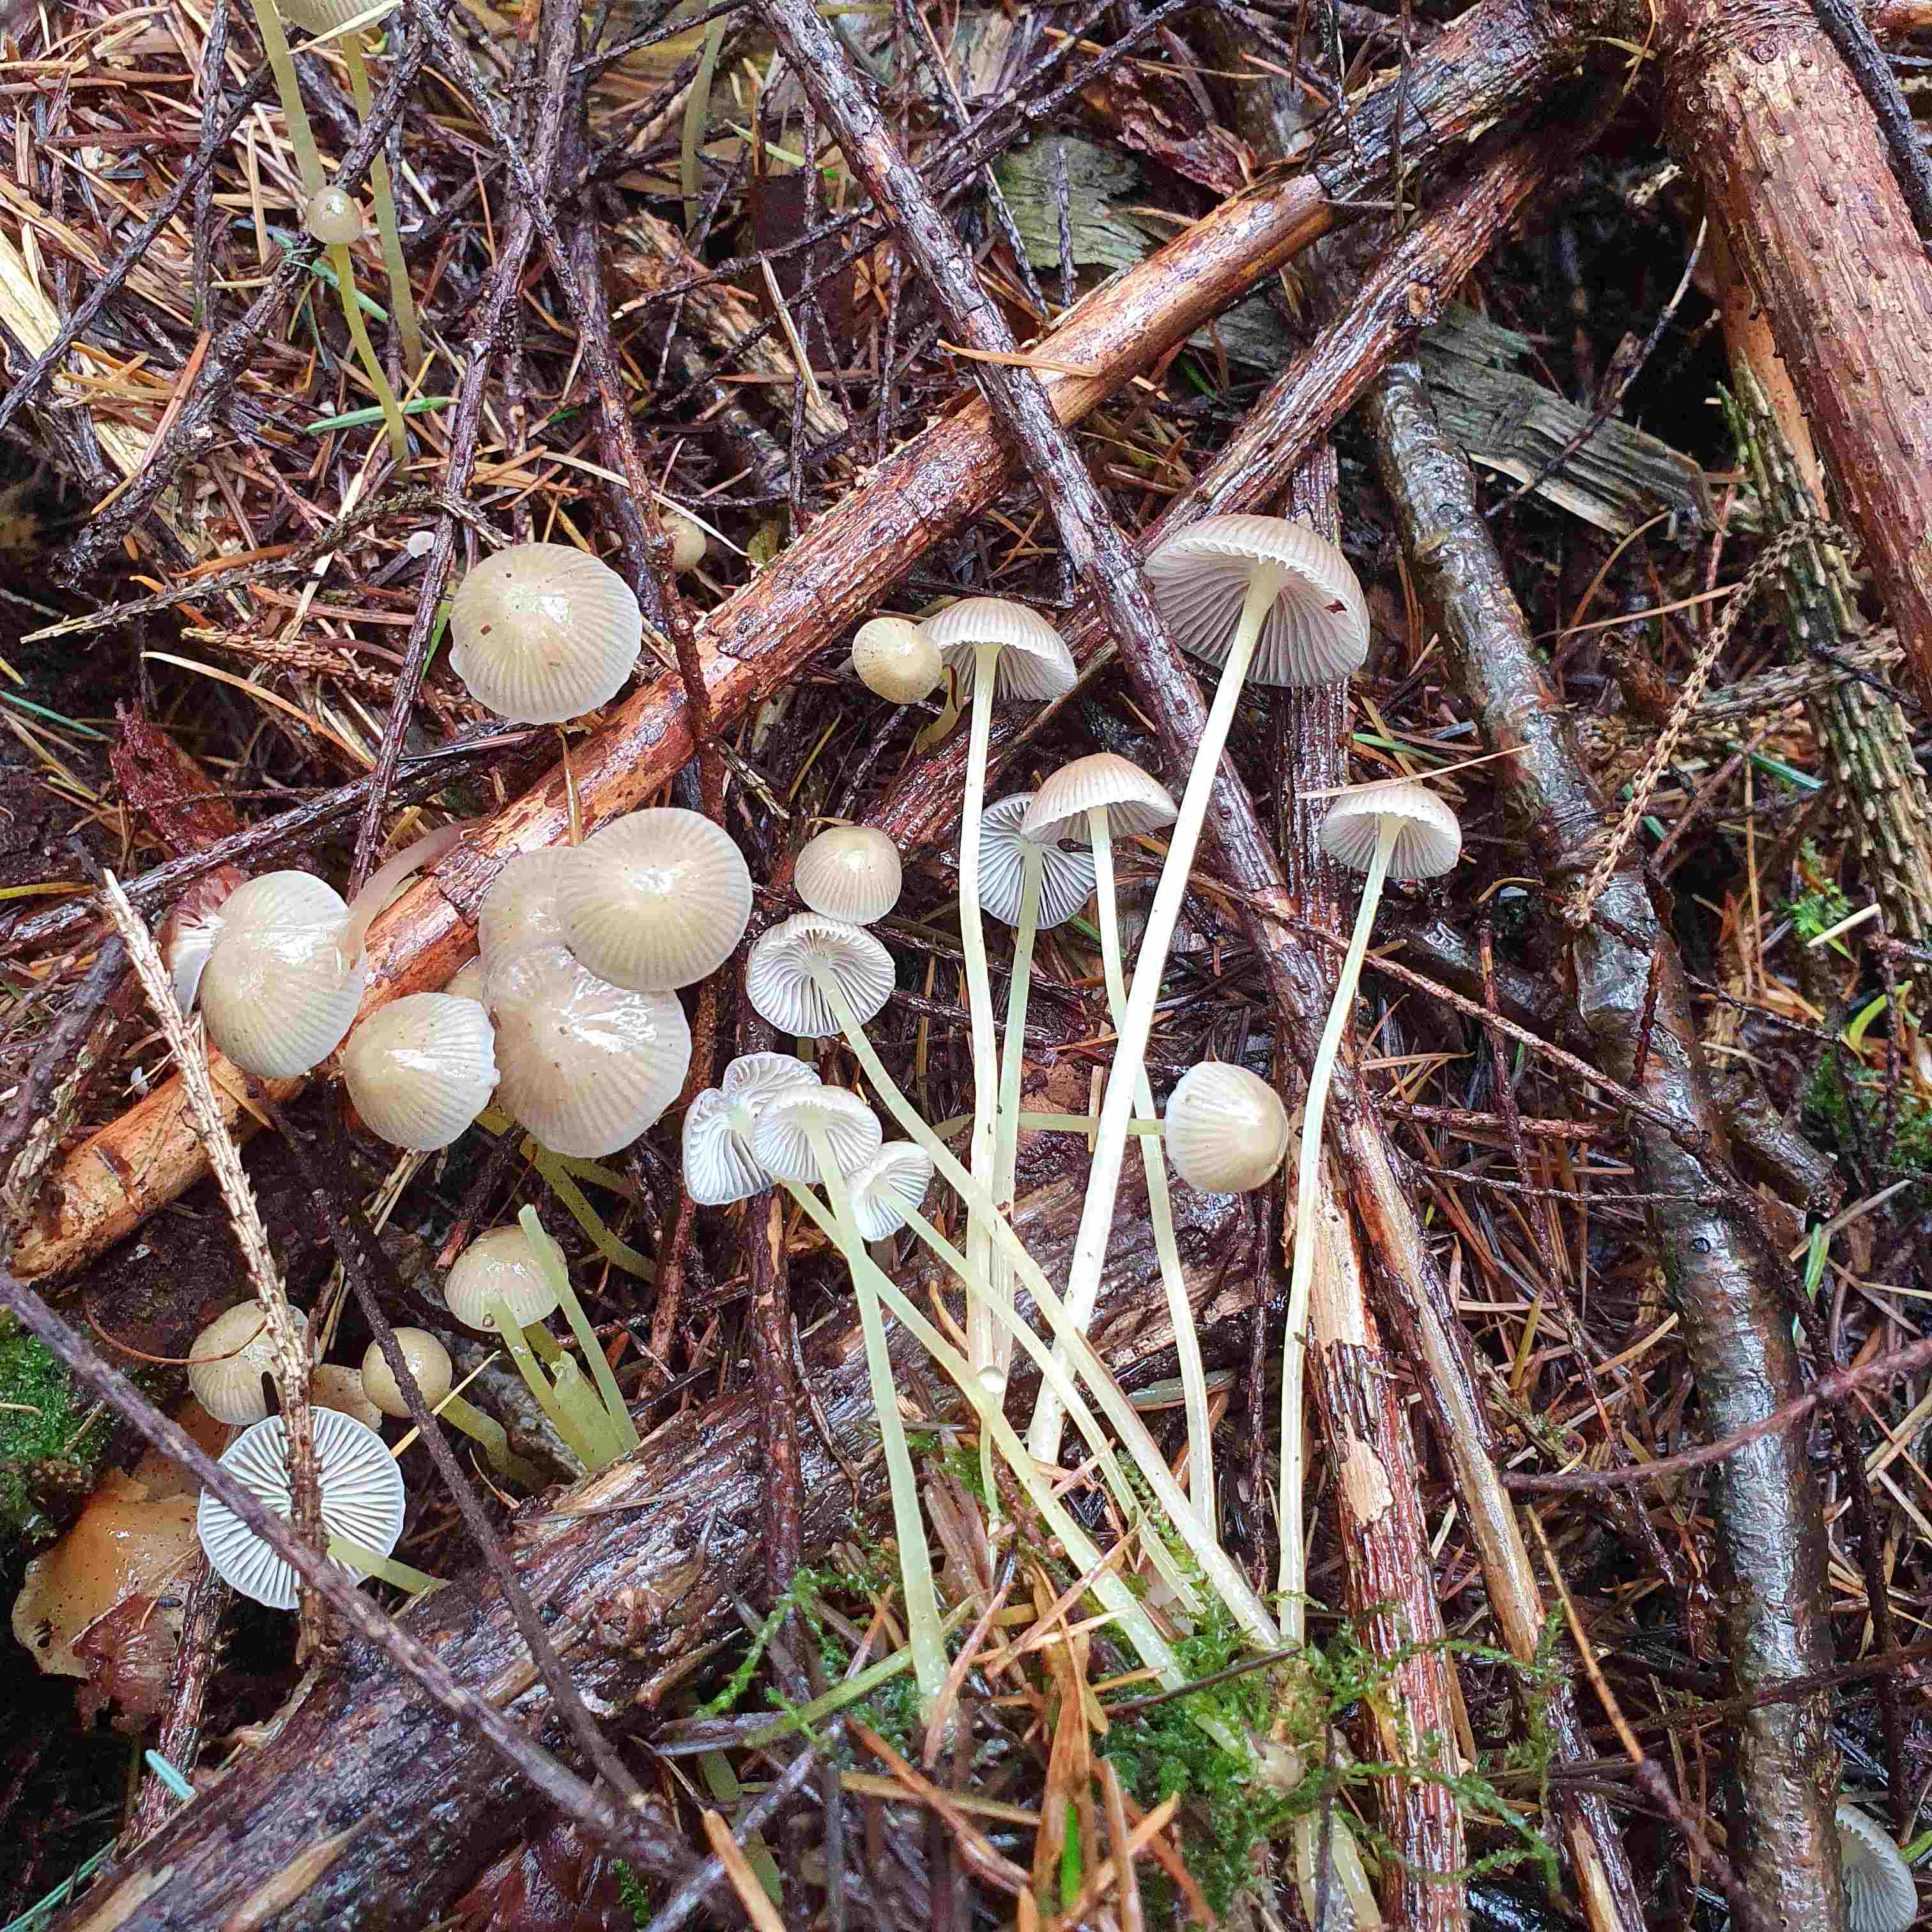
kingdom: Fungi
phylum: Basidiomycota
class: Agaricomycetes
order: Agaricales
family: Mycenaceae
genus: Mycena
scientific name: Mycena epipterygia
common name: gulstokket huesvamp
